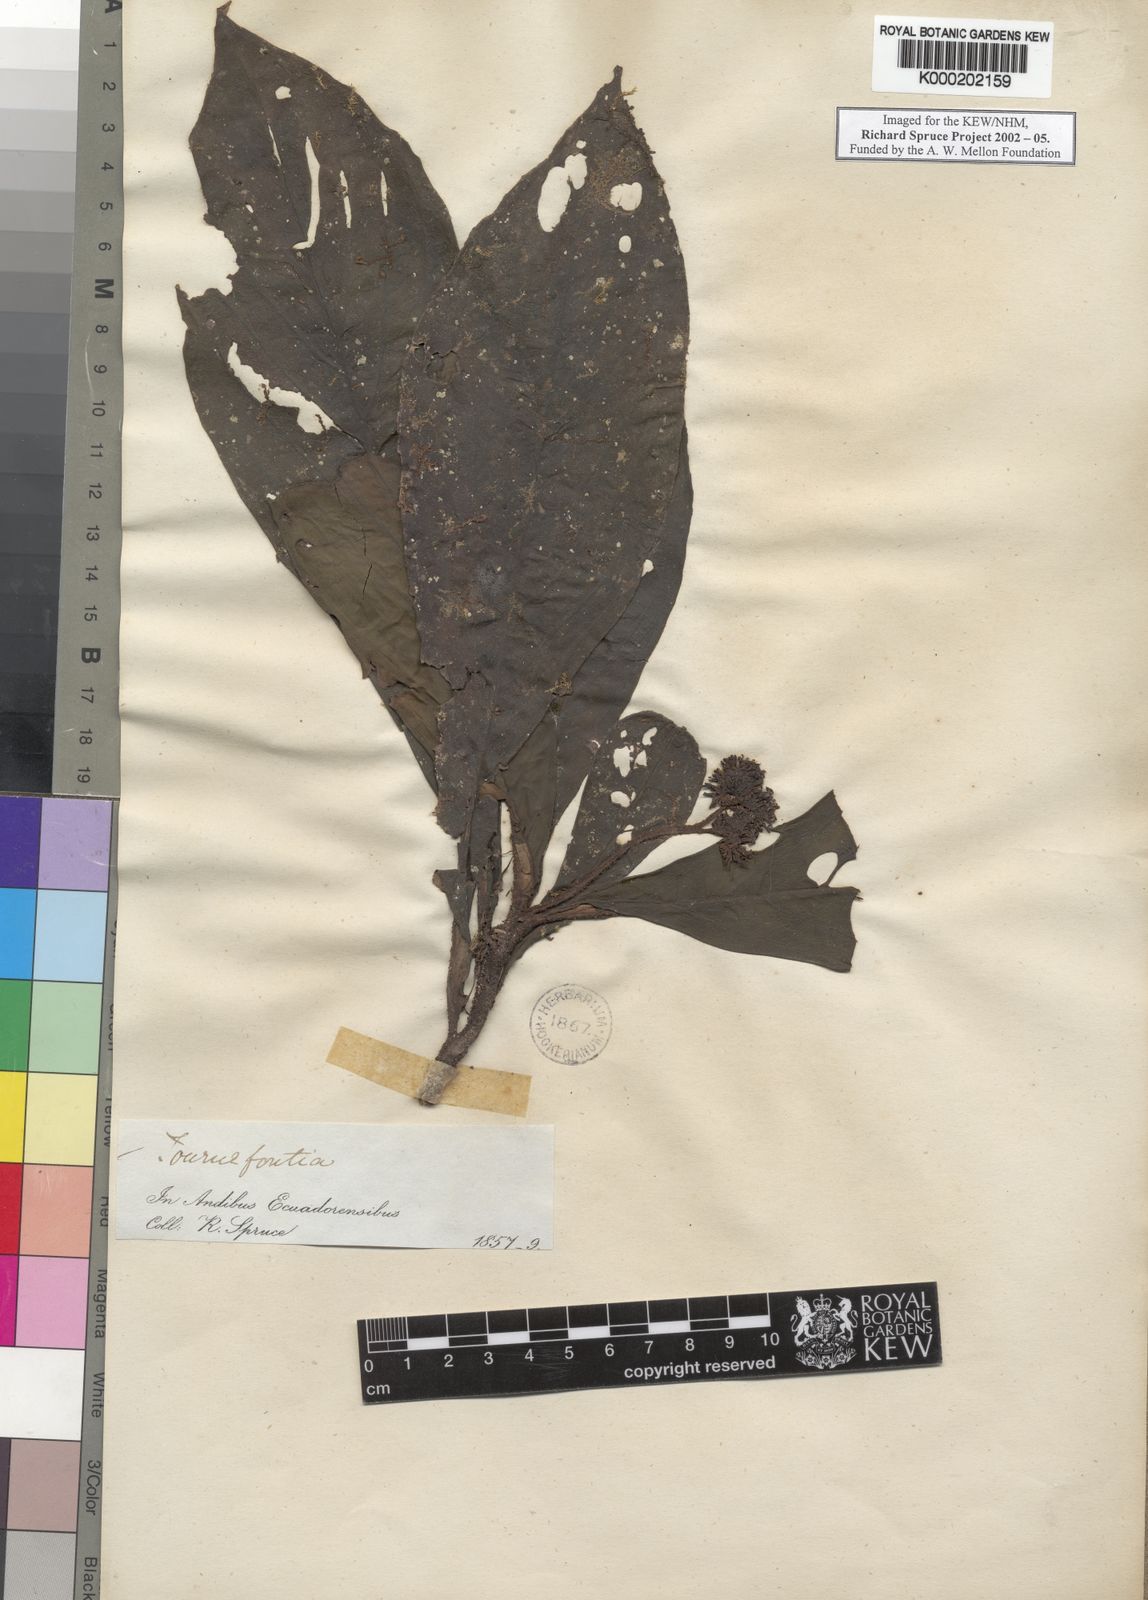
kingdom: Plantae
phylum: Tracheophyta
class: Magnoliopsida
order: Boraginales
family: Heliotropiaceae
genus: Heliotropium
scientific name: Heliotropium gigantifolium
